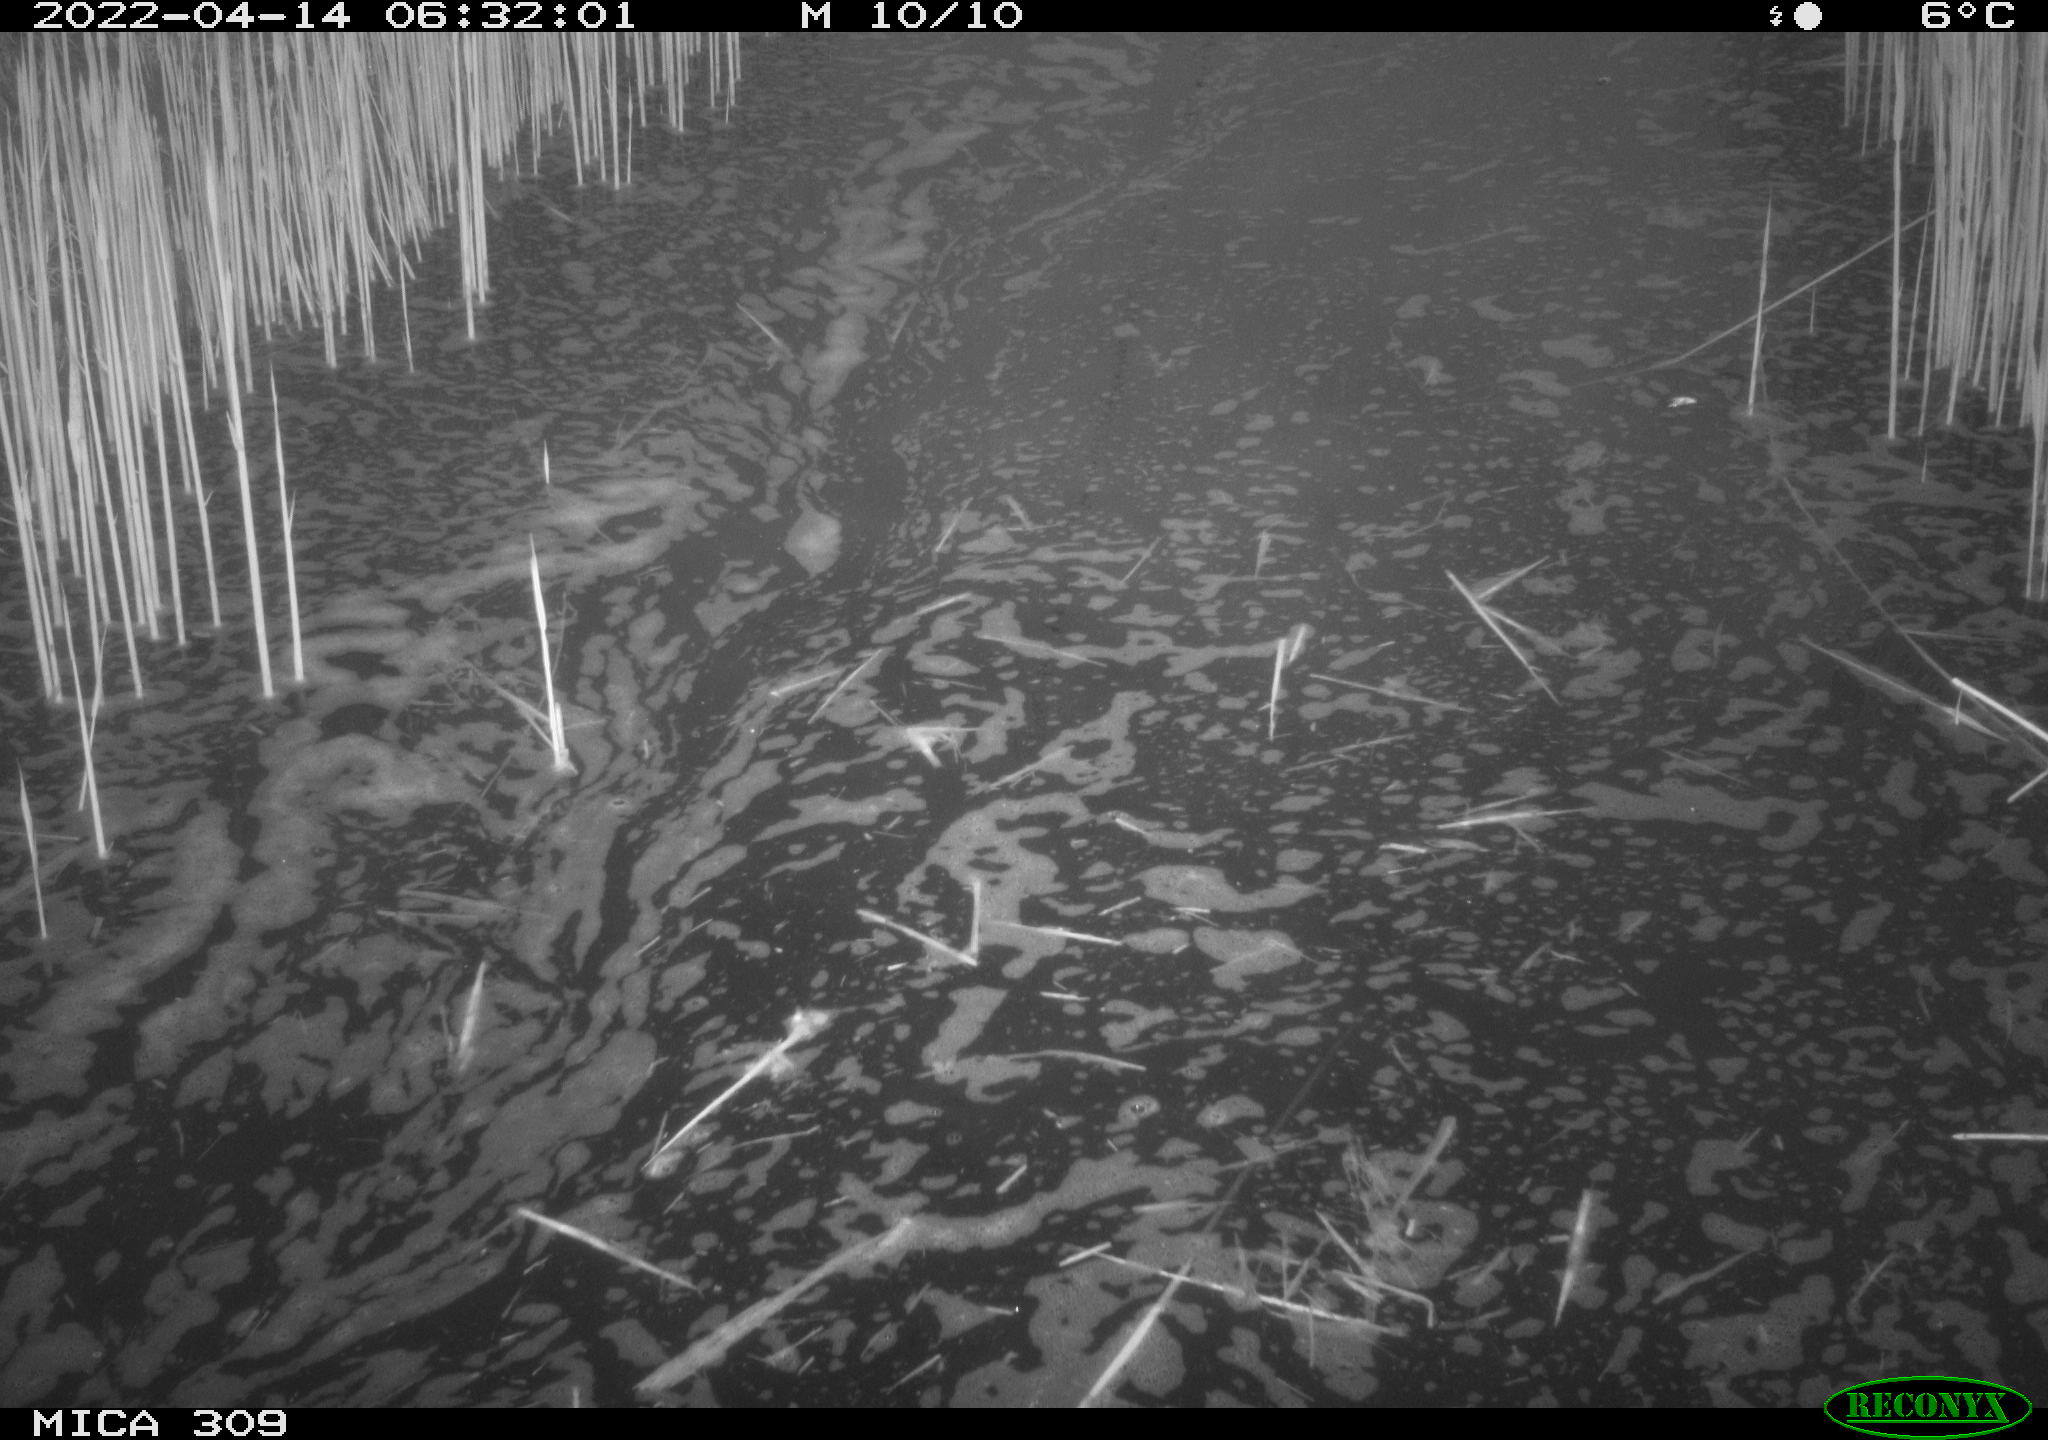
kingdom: Animalia
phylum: Chordata
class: Aves
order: Gruiformes
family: Rallidae
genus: Gallinula
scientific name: Gallinula chloropus
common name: Common moorhen
